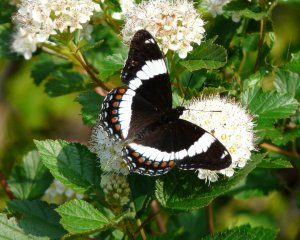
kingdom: Animalia
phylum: Arthropoda
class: Insecta
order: Lepidoptera
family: Nymphalidae
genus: Limenitis
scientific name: Limenitis arthemis
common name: Red-spotted Admiral
